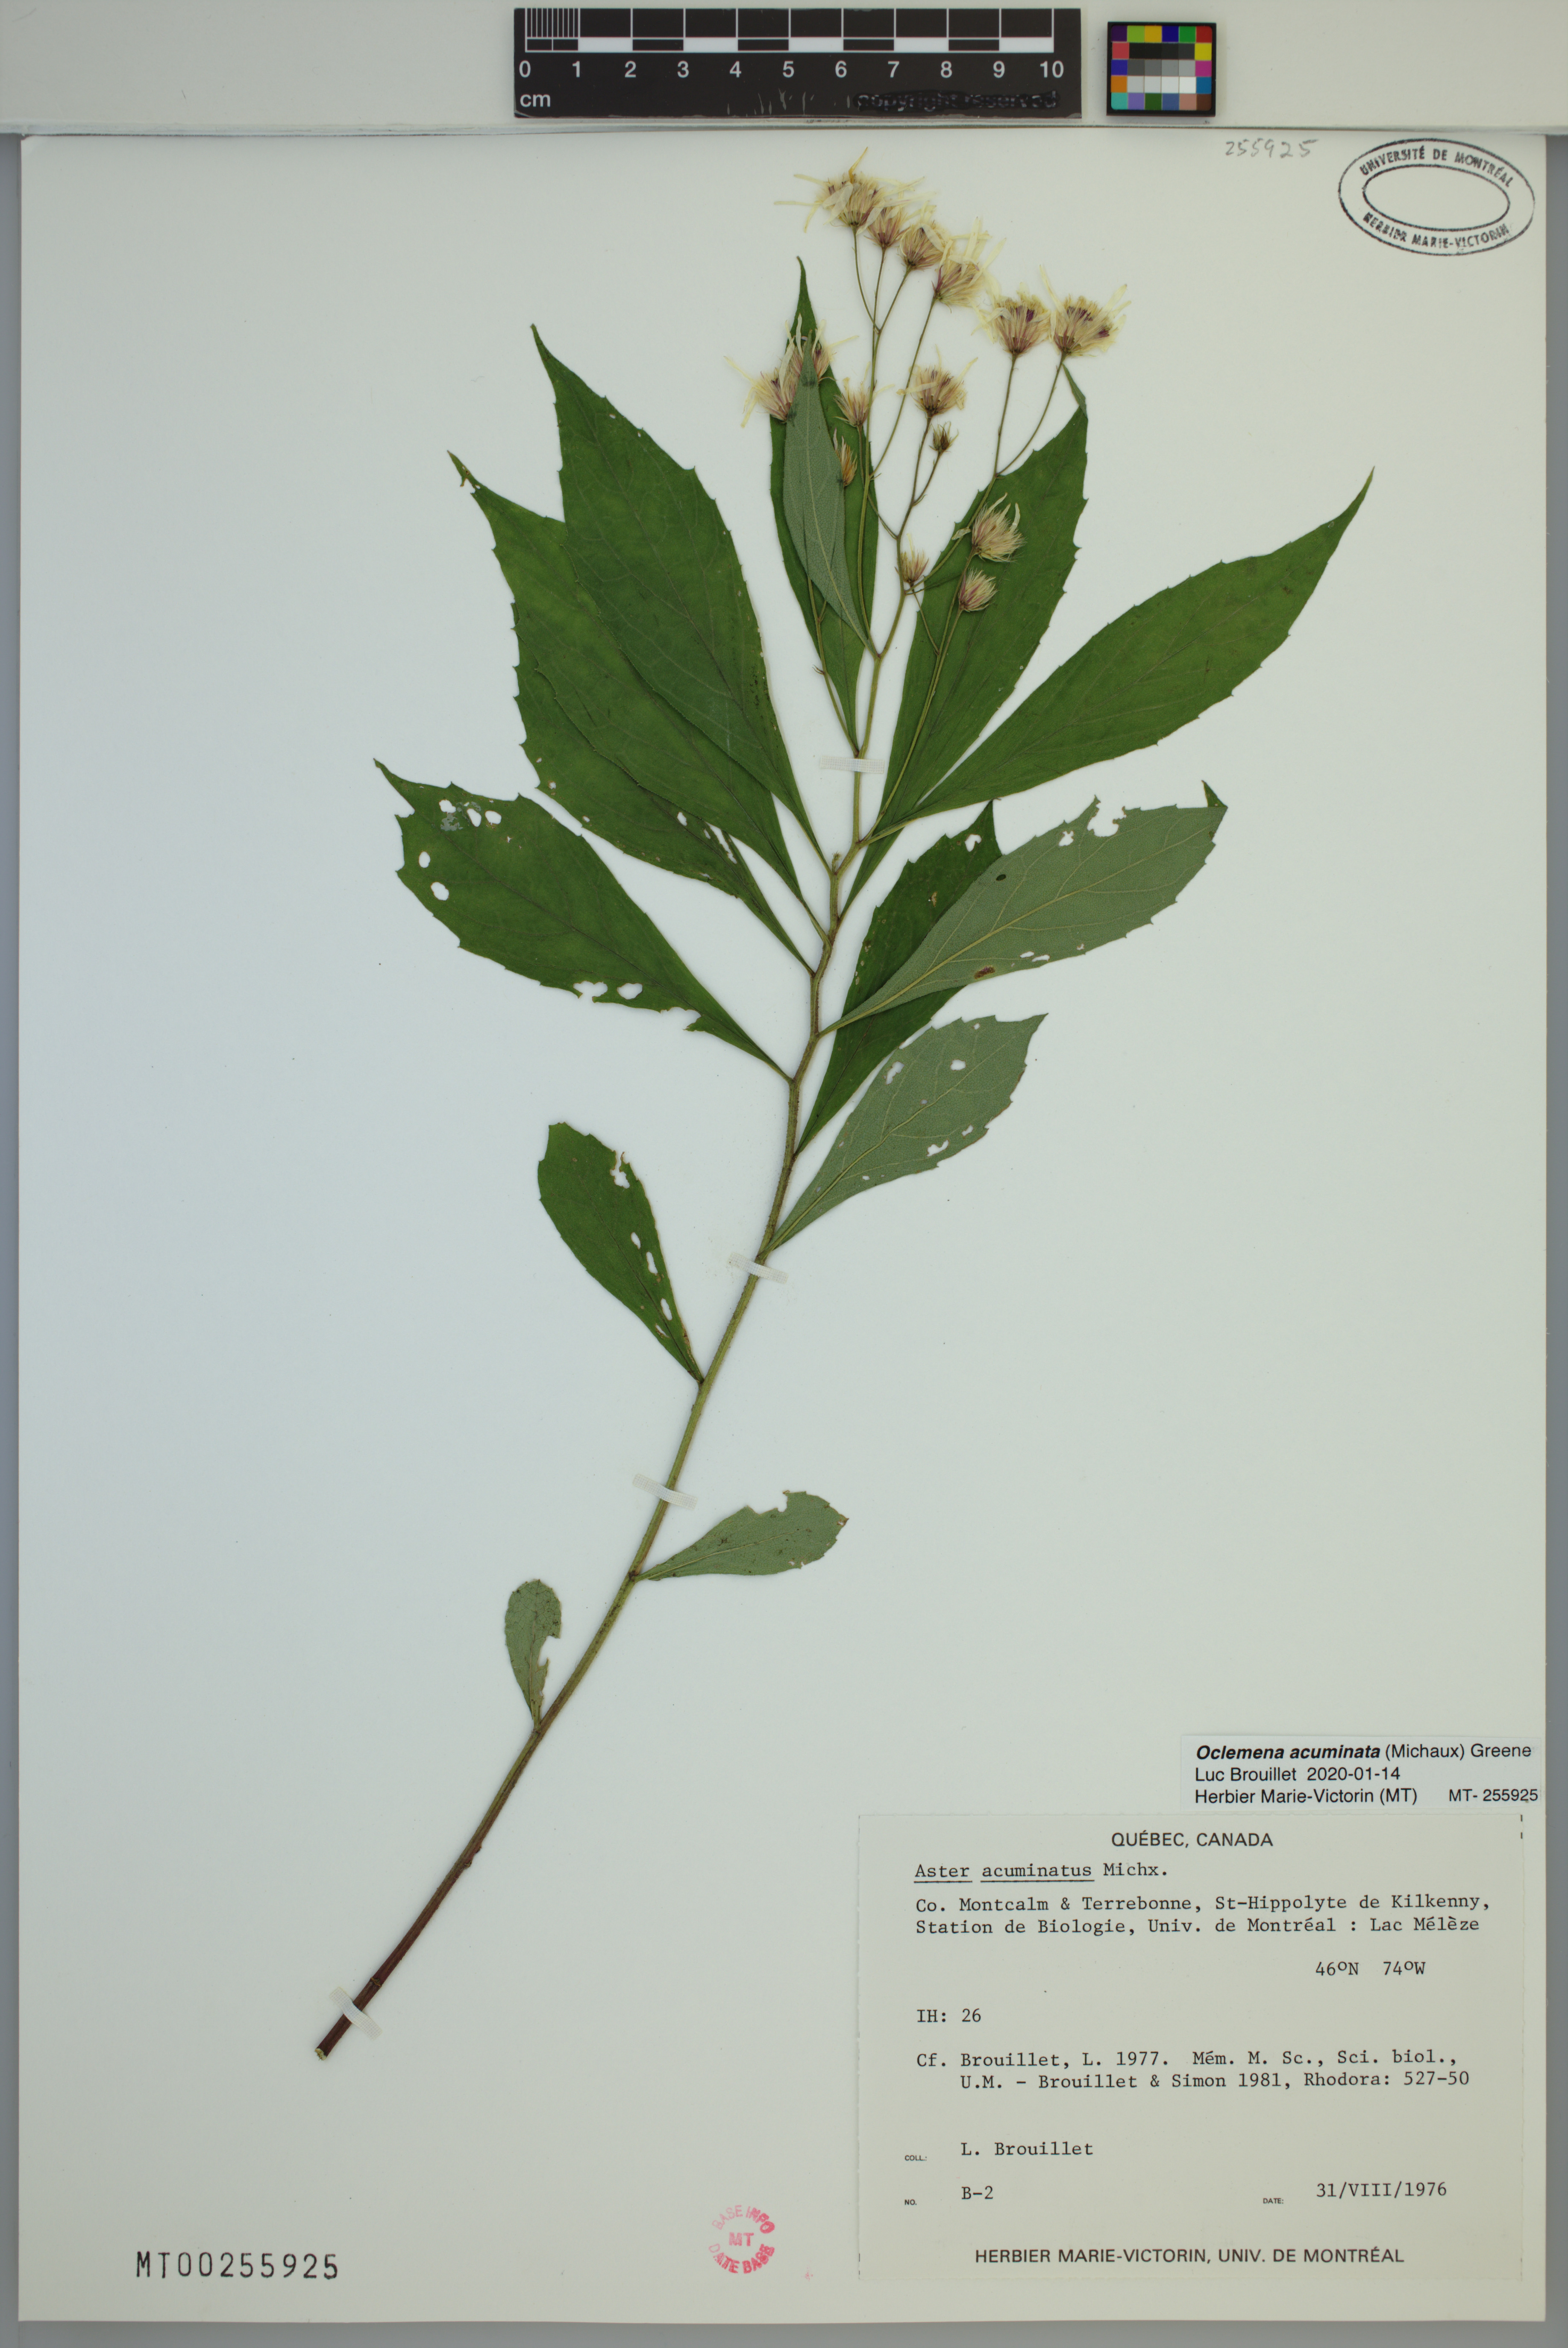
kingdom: Plantae
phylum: Tracheophyta
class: Magnoliopsida
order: Asterales
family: Asteraceae
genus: Oclemena
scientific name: Oclemena acuminata
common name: Mountain aster
